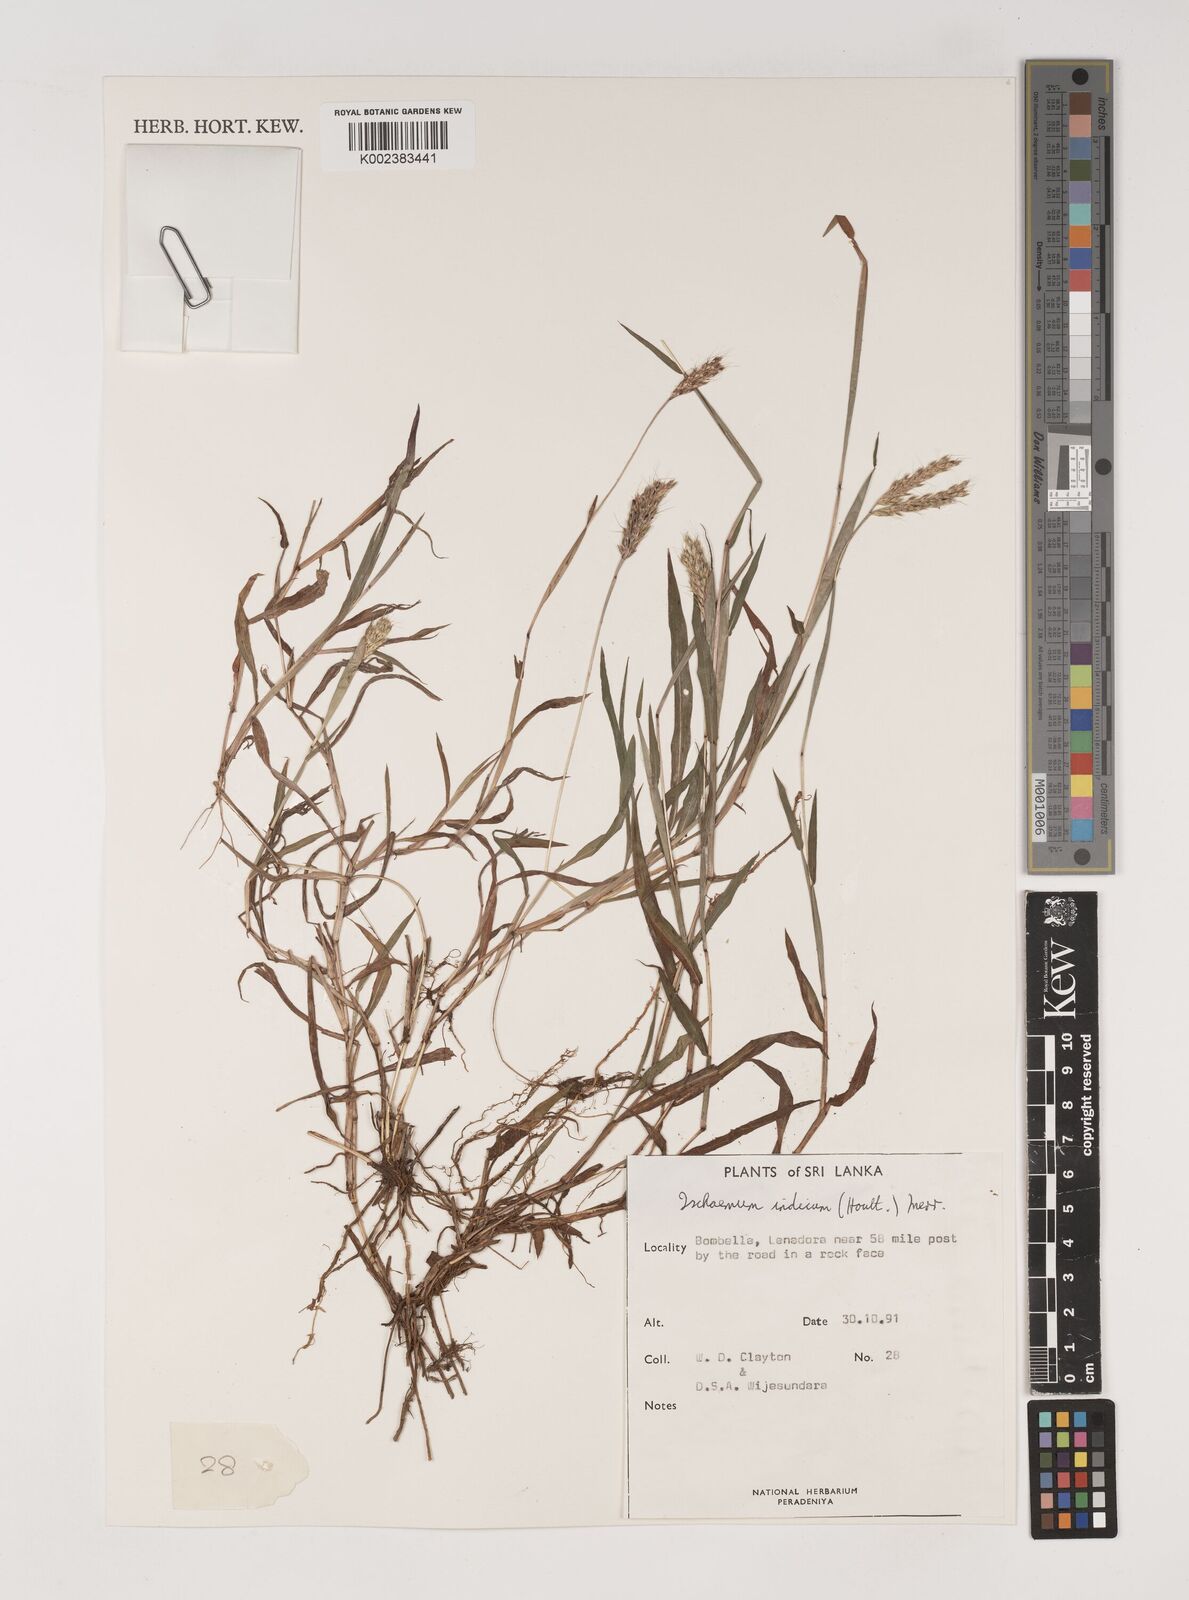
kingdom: Plantae
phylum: Tracheophyta
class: Liliopsida
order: Poales
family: Poaceae
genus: Polytrias
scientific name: Polytrias indica
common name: Indian murainagrass
